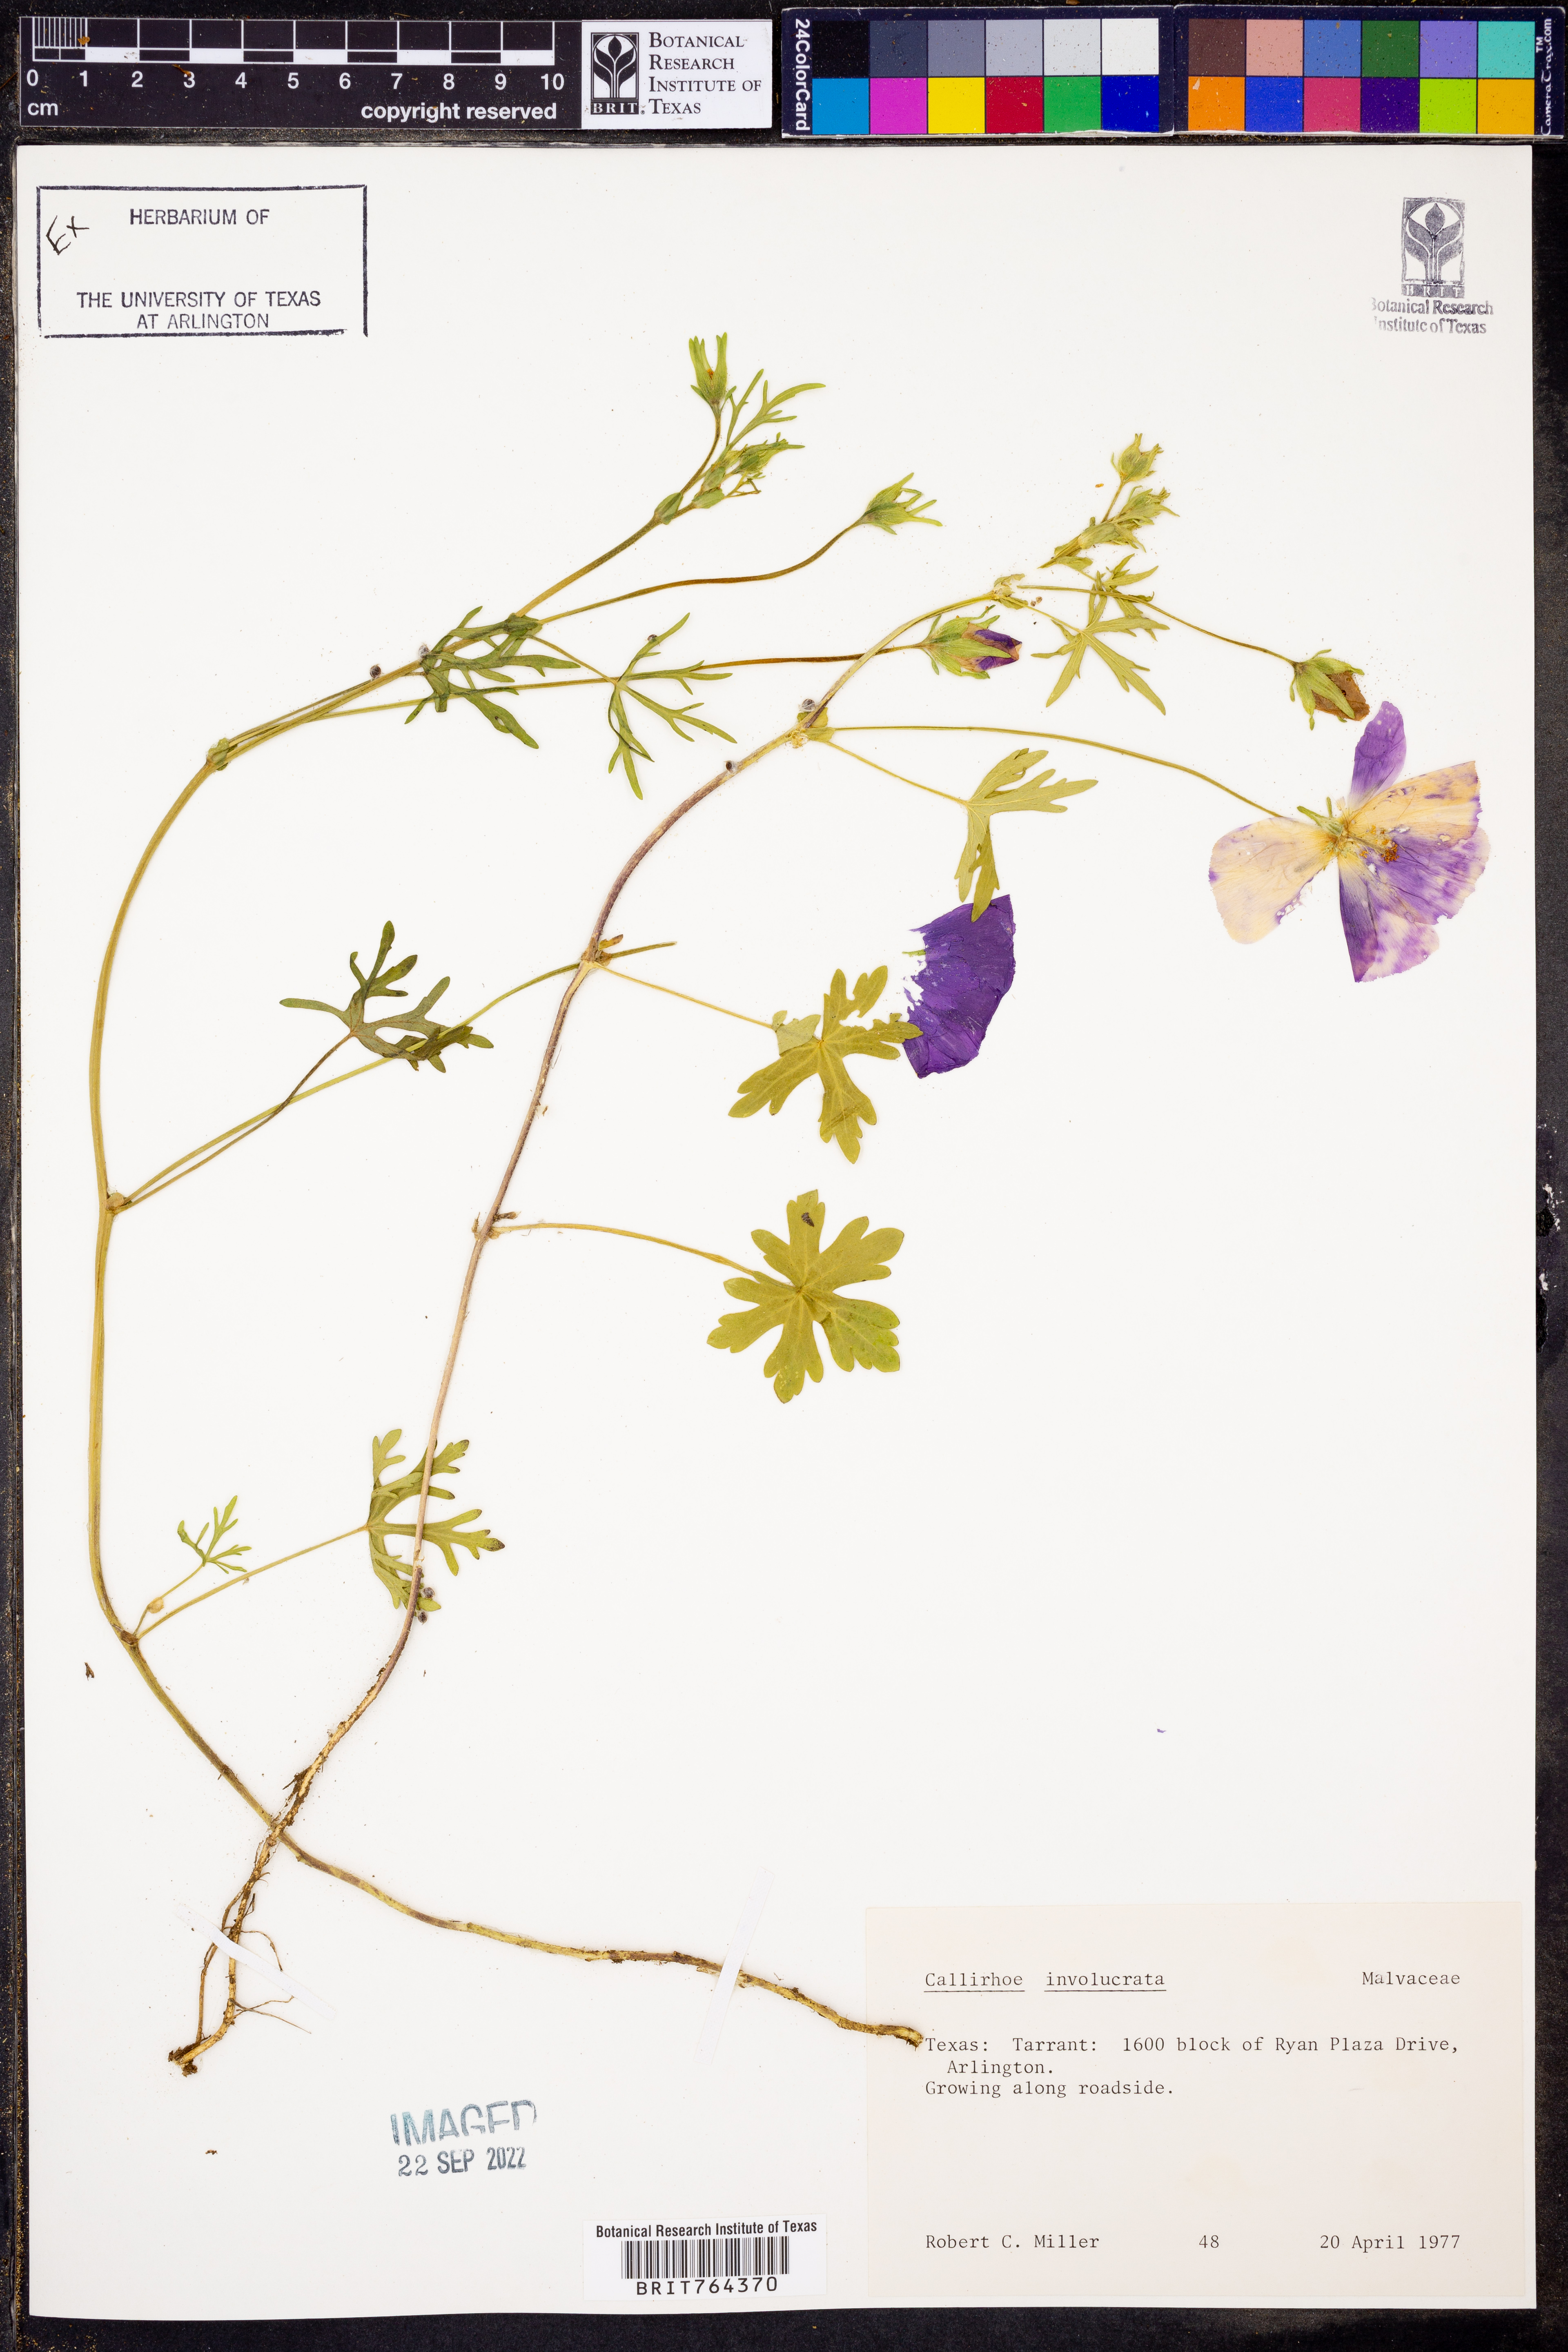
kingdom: Plantae
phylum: Tracheophyta
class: Magnoliopsida
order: Malvales
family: Malvaceae
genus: Callirhoe
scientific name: Callirhoe involucrata
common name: Purple poppy-mallow
